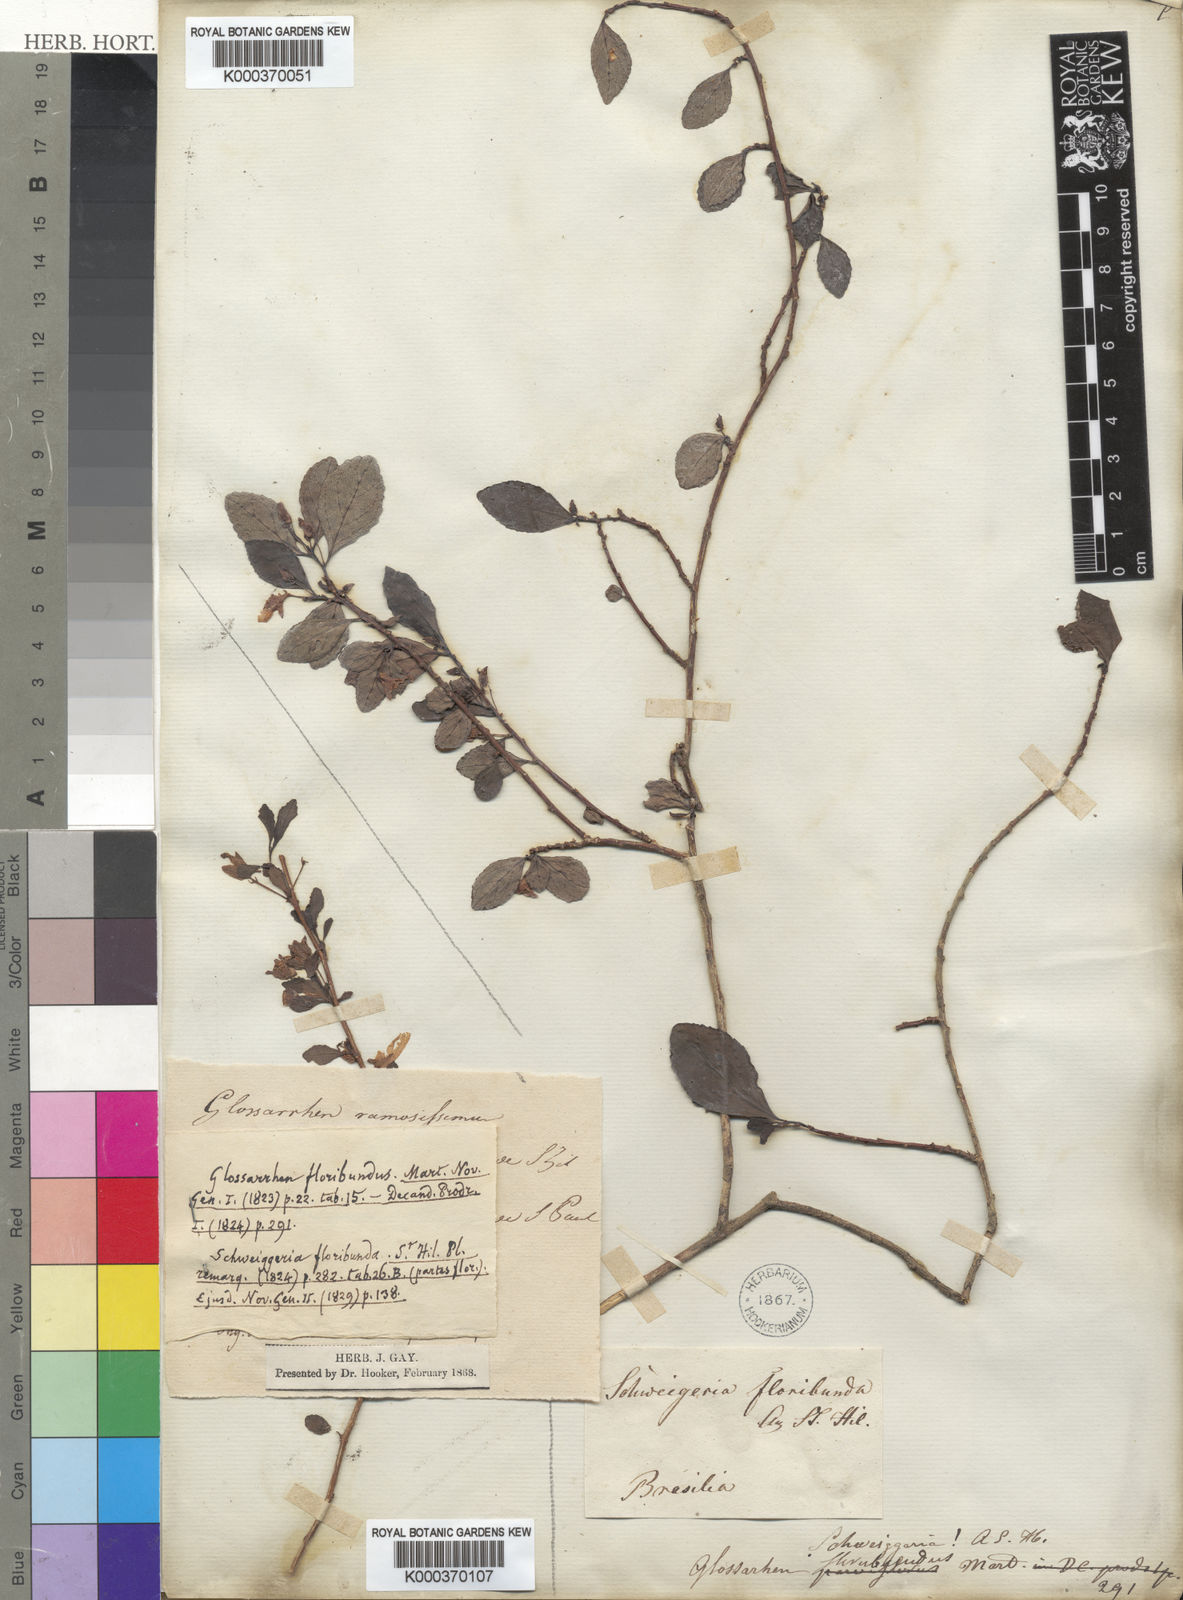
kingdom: Plantae
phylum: Tracheophyta
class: Magnoliopsida
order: Malpighiales
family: Violaceae
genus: Schweiggeria
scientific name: Schweiggeria fruticosa
